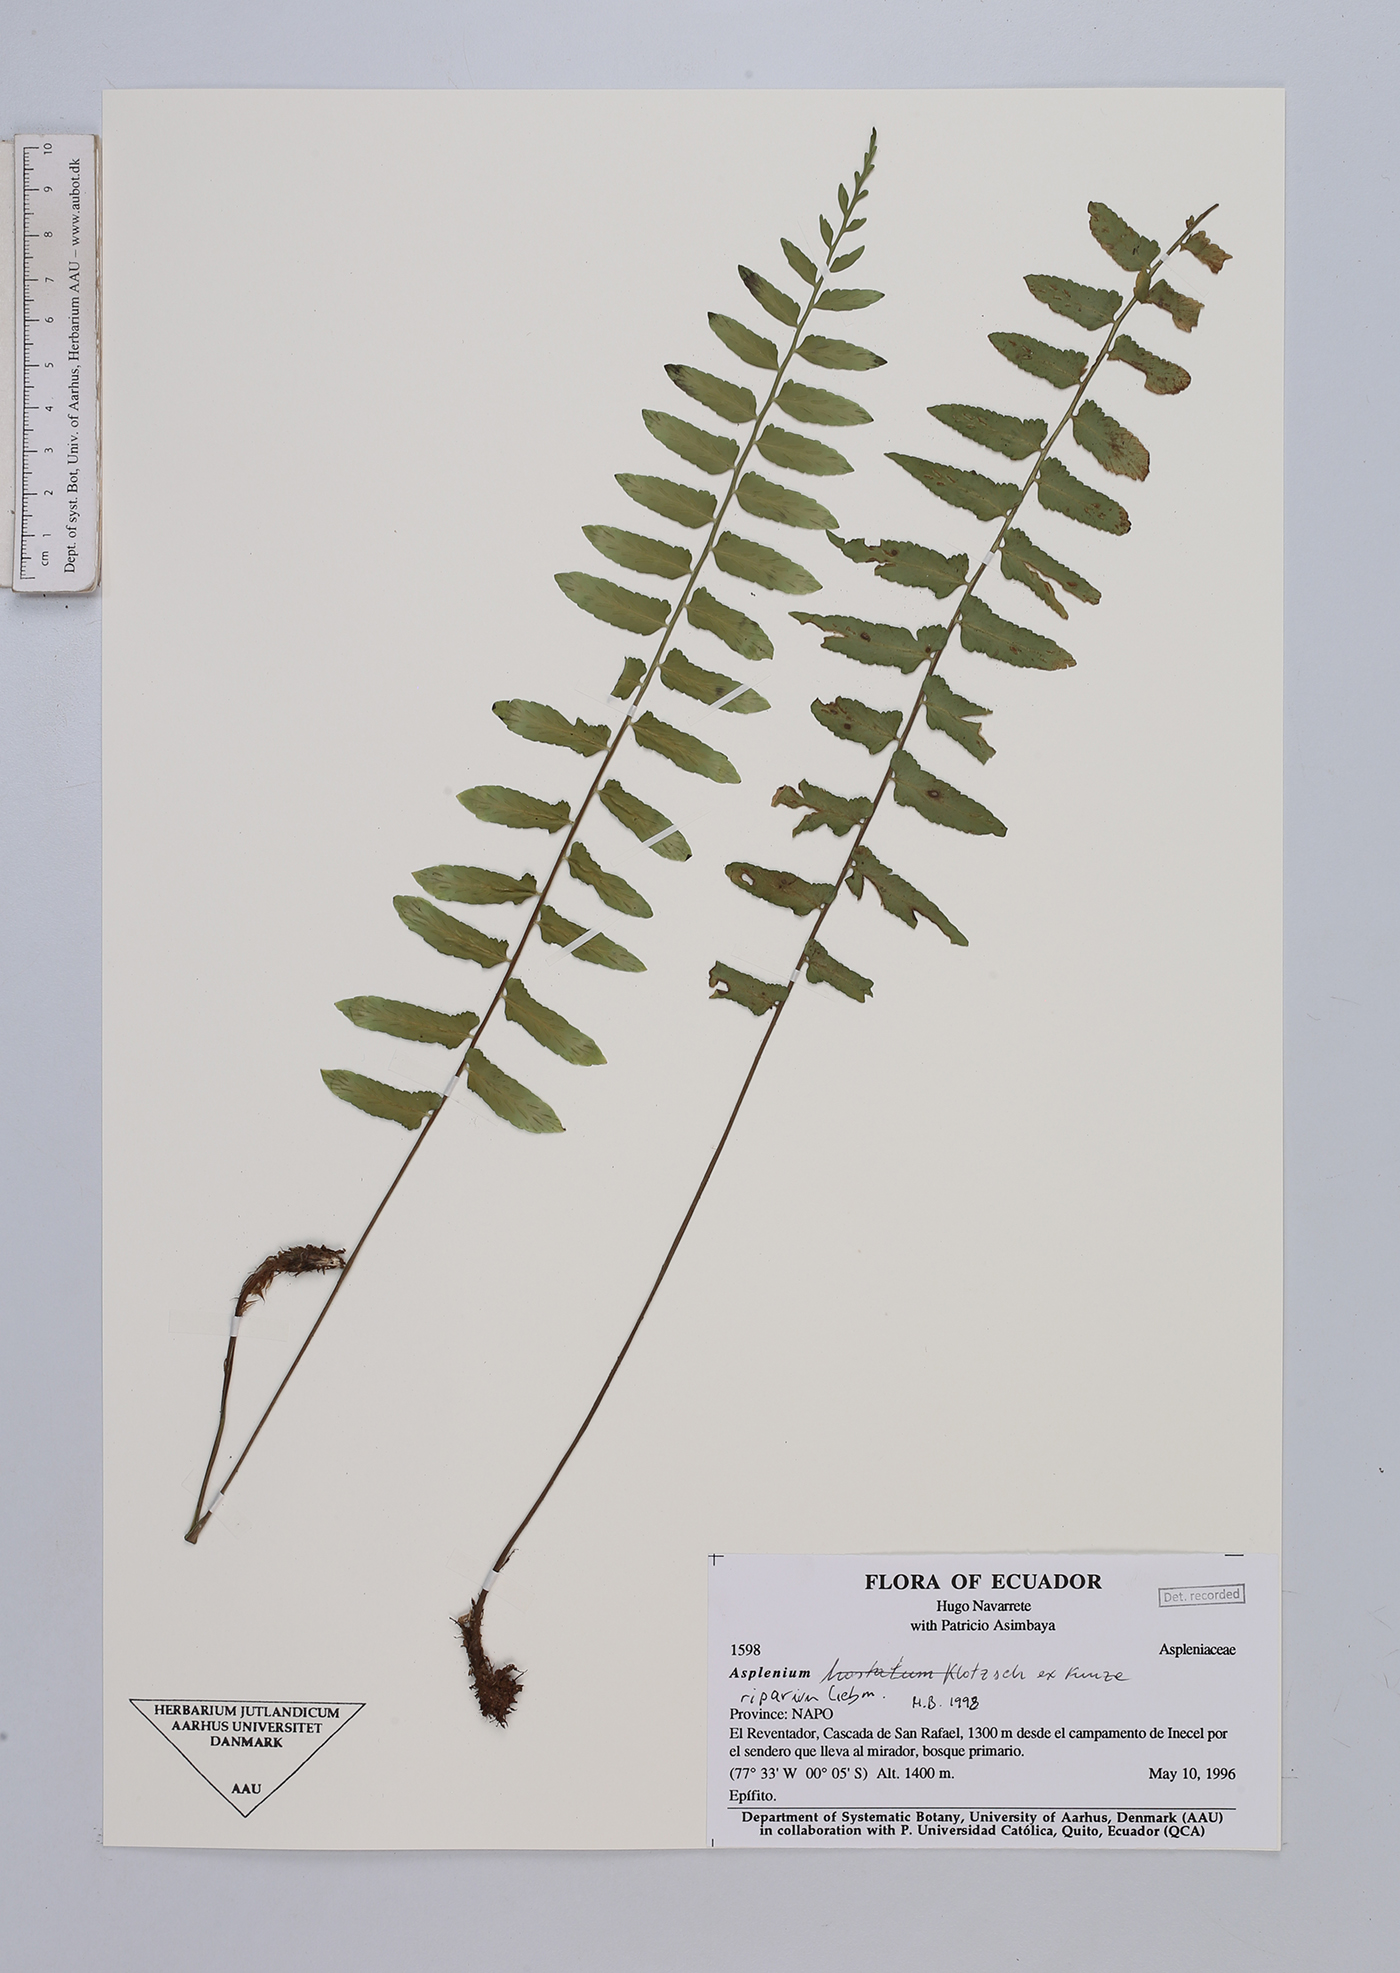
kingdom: Plantae
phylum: Tracheophyta
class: Polypodiopsida
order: Polypodiales
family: Aspleniaceae
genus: Hymenasplenium
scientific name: Hymenasplenium riparium
